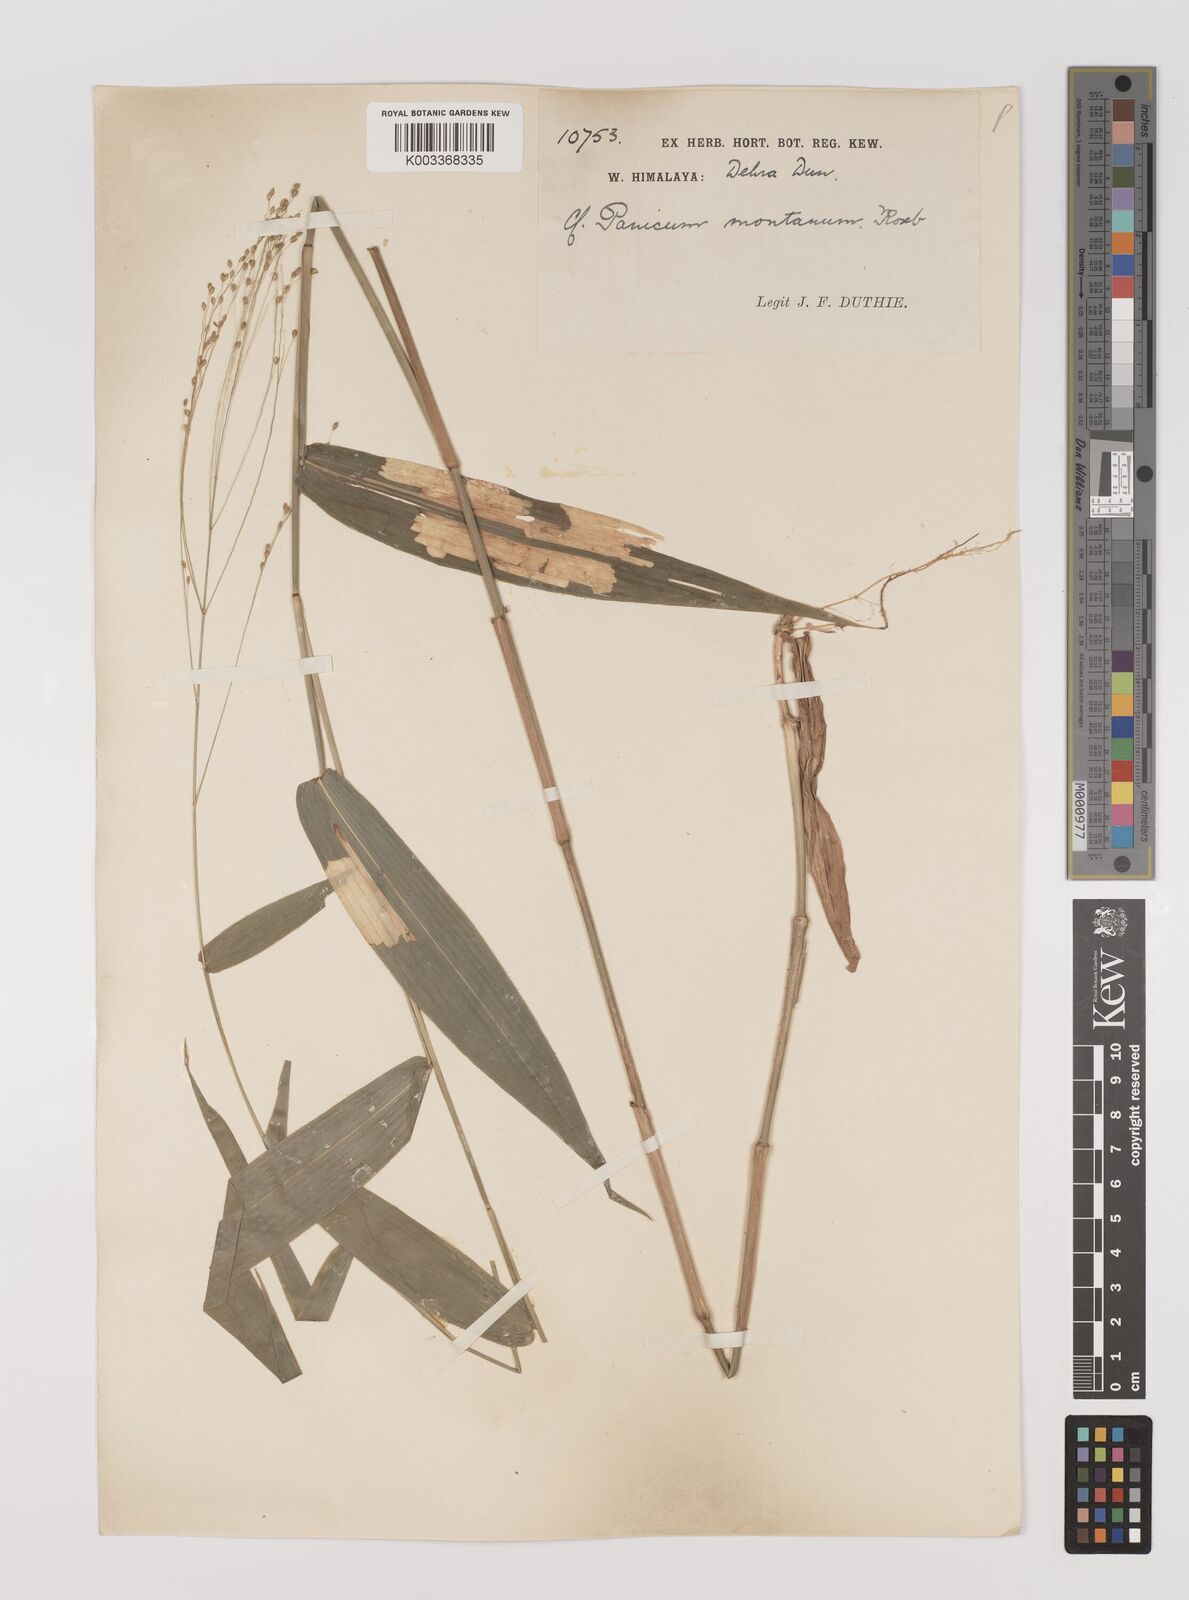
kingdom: Plantae
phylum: Tracheophyta
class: Liliopsida
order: Poales
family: Poaceae
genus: Panicum
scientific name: Panicum notatum
